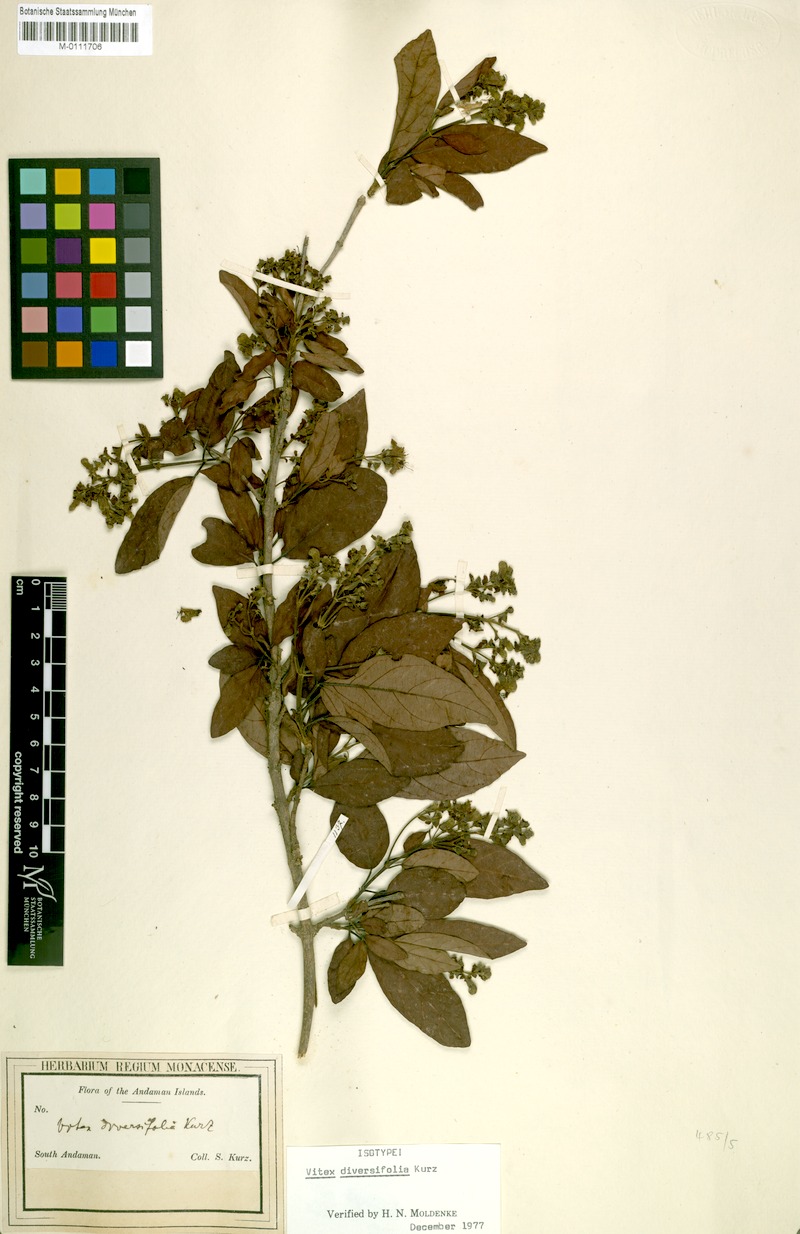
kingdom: Plantae
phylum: Tracheophyta
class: Magnoliopsida
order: Lamiales
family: Lamiaceae
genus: Vitex
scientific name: Vitex diversifolia
